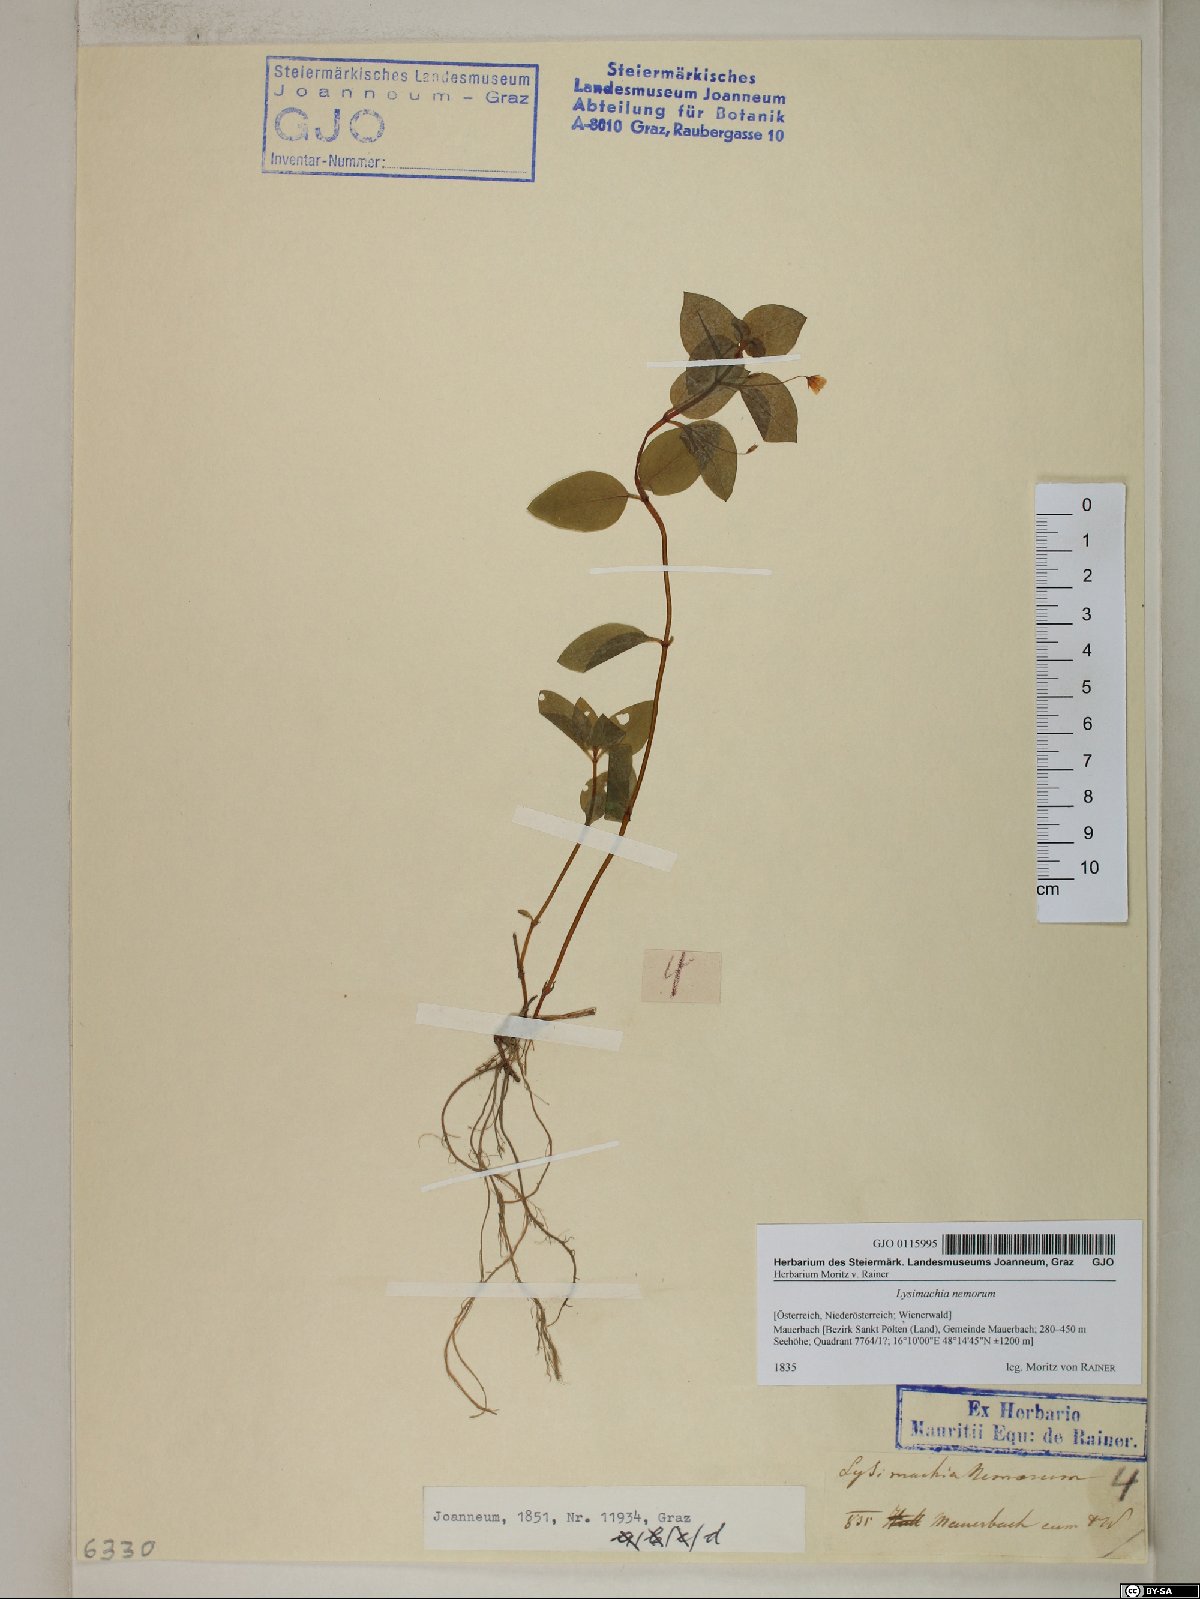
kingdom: Plantae
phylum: Tracheophyta
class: Magnoliopsida
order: Ericales
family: Primulaceae
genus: Lysimachia
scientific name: Lysimachia nemorum
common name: Yellow pimpernel
